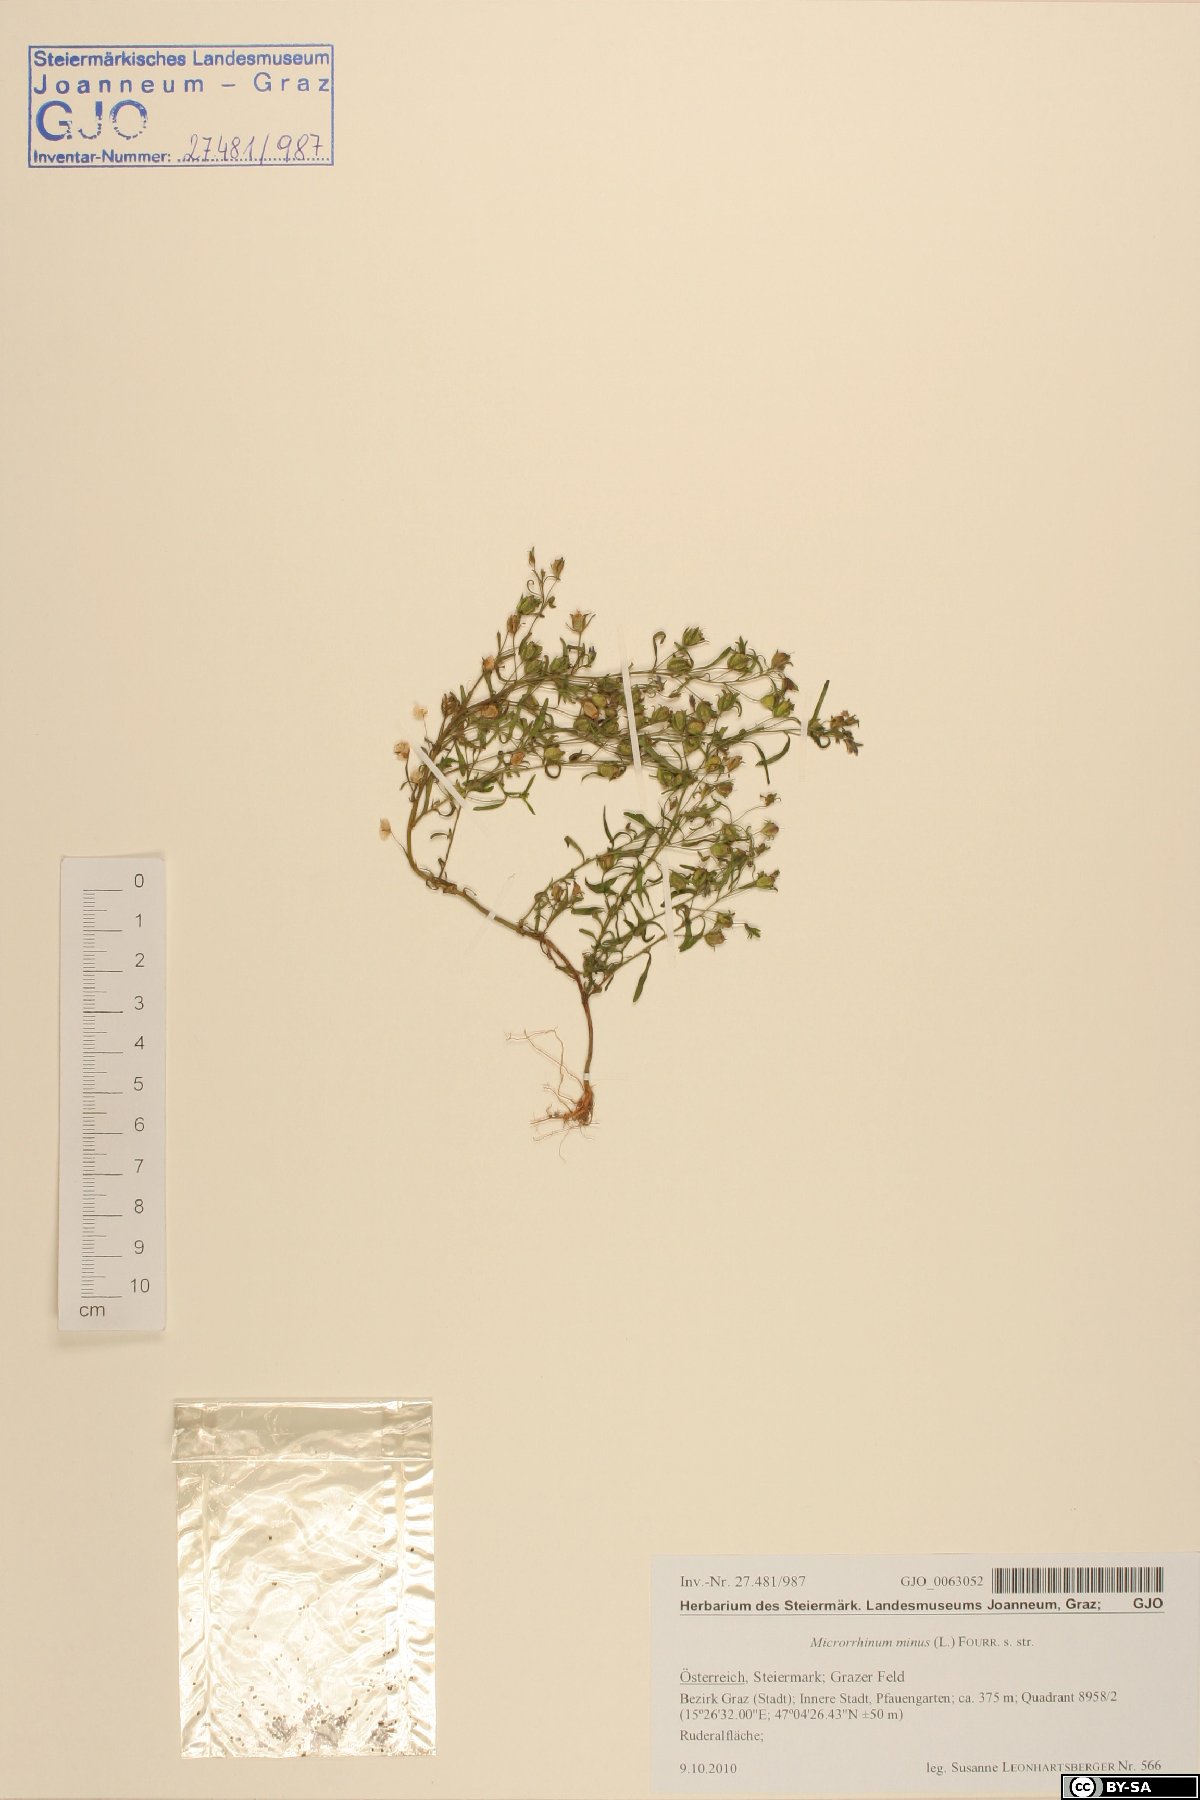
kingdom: Plantae
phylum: Tracheophyta
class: Magnoliopsida
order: Lamiales
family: Plantaginaceae
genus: Chaenorhinum
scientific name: Chaenorhinum minus
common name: Dwarf snapdragon
